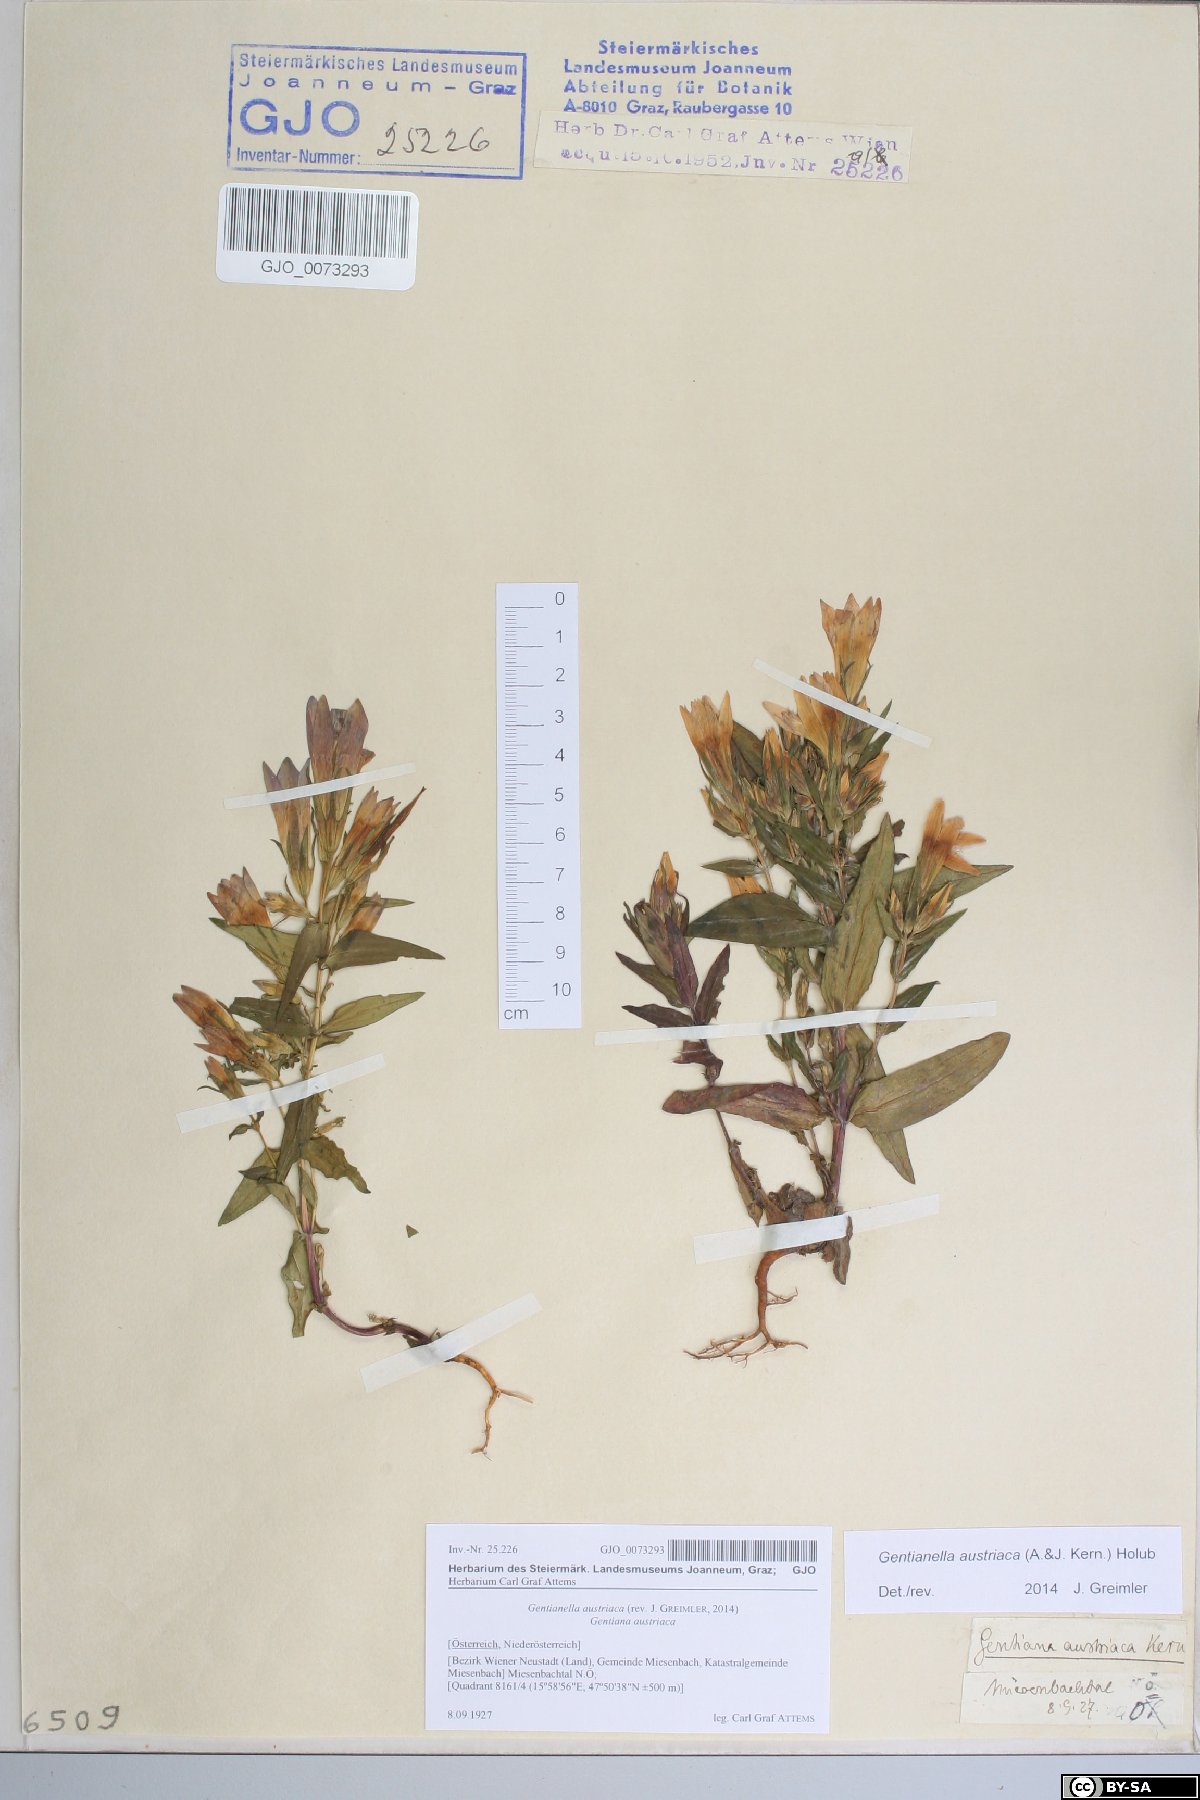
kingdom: Plantae
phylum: Tracheophyta
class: Magnoliopsida
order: Gentianales
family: Gentianaceae
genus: Gentianella
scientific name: Gentianella austriaca
